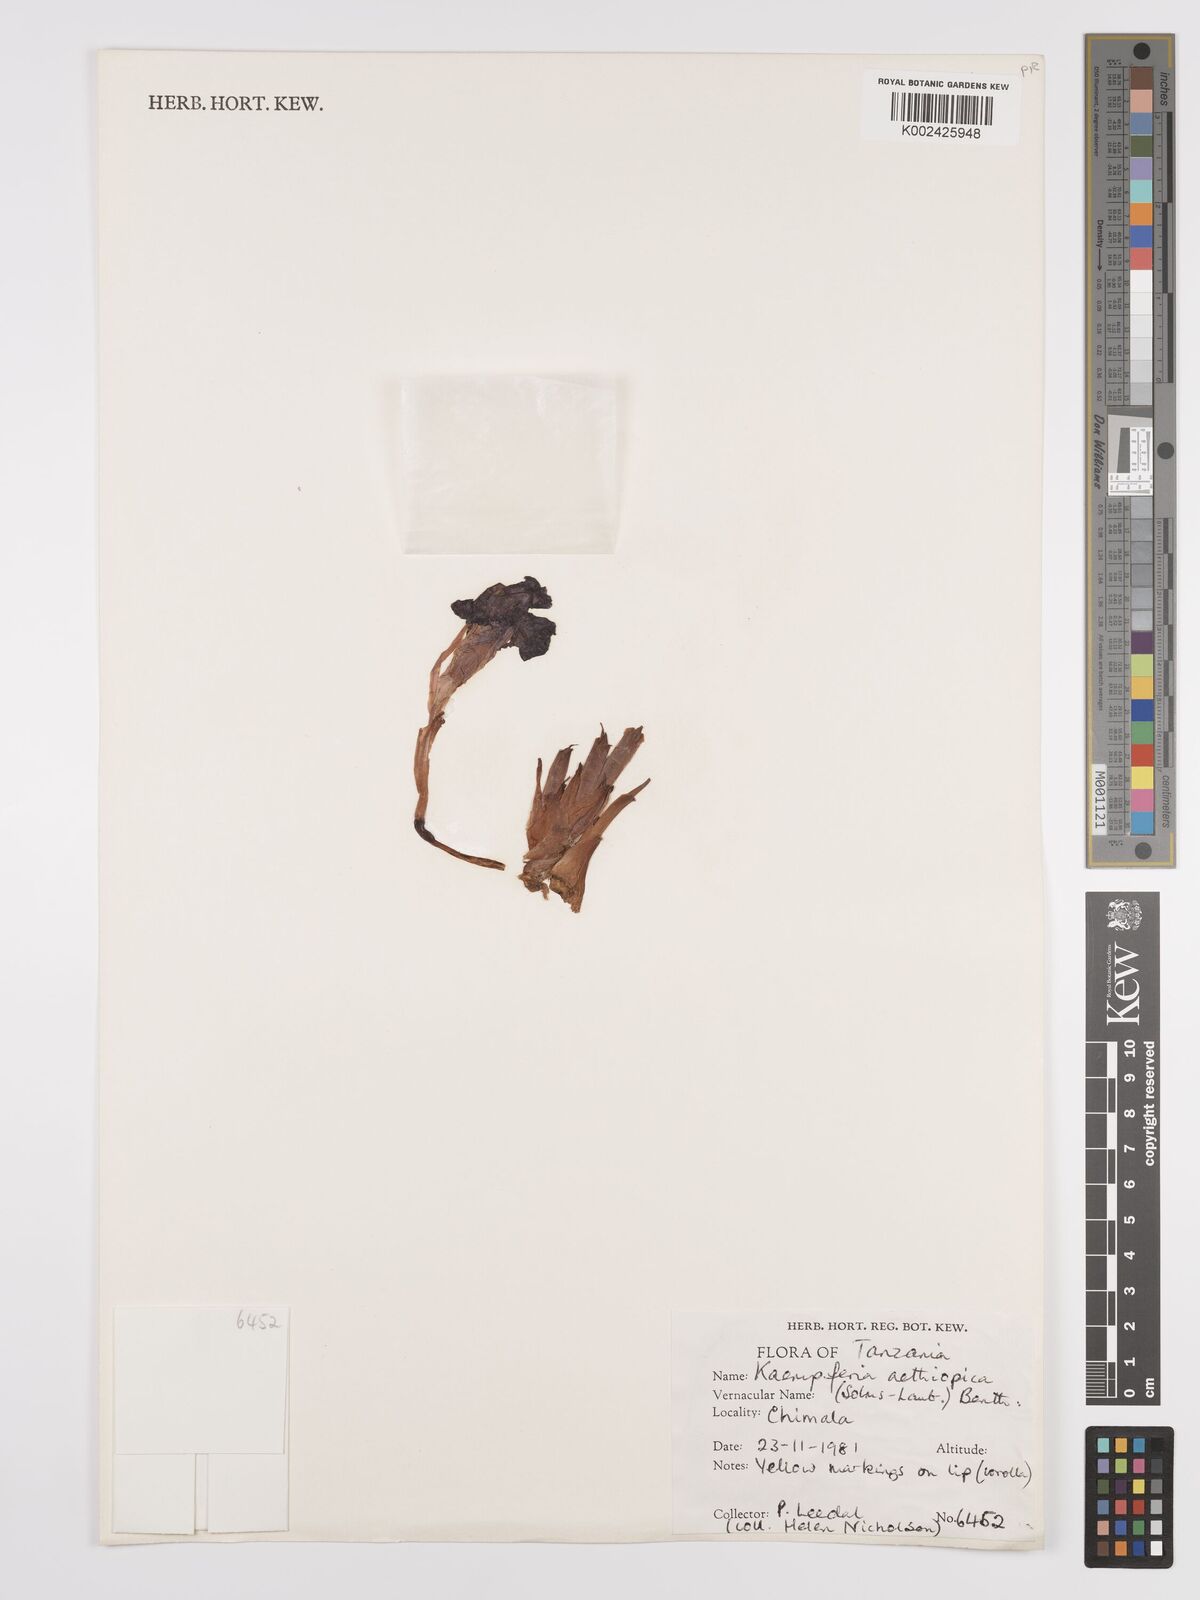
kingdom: Plantae
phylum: Tracheophyta
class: Liliopsida
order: Zingiberales
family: Zingiberaceae
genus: Siphonochilus
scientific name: Siphonochilus aethiopicus
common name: African-ginger
